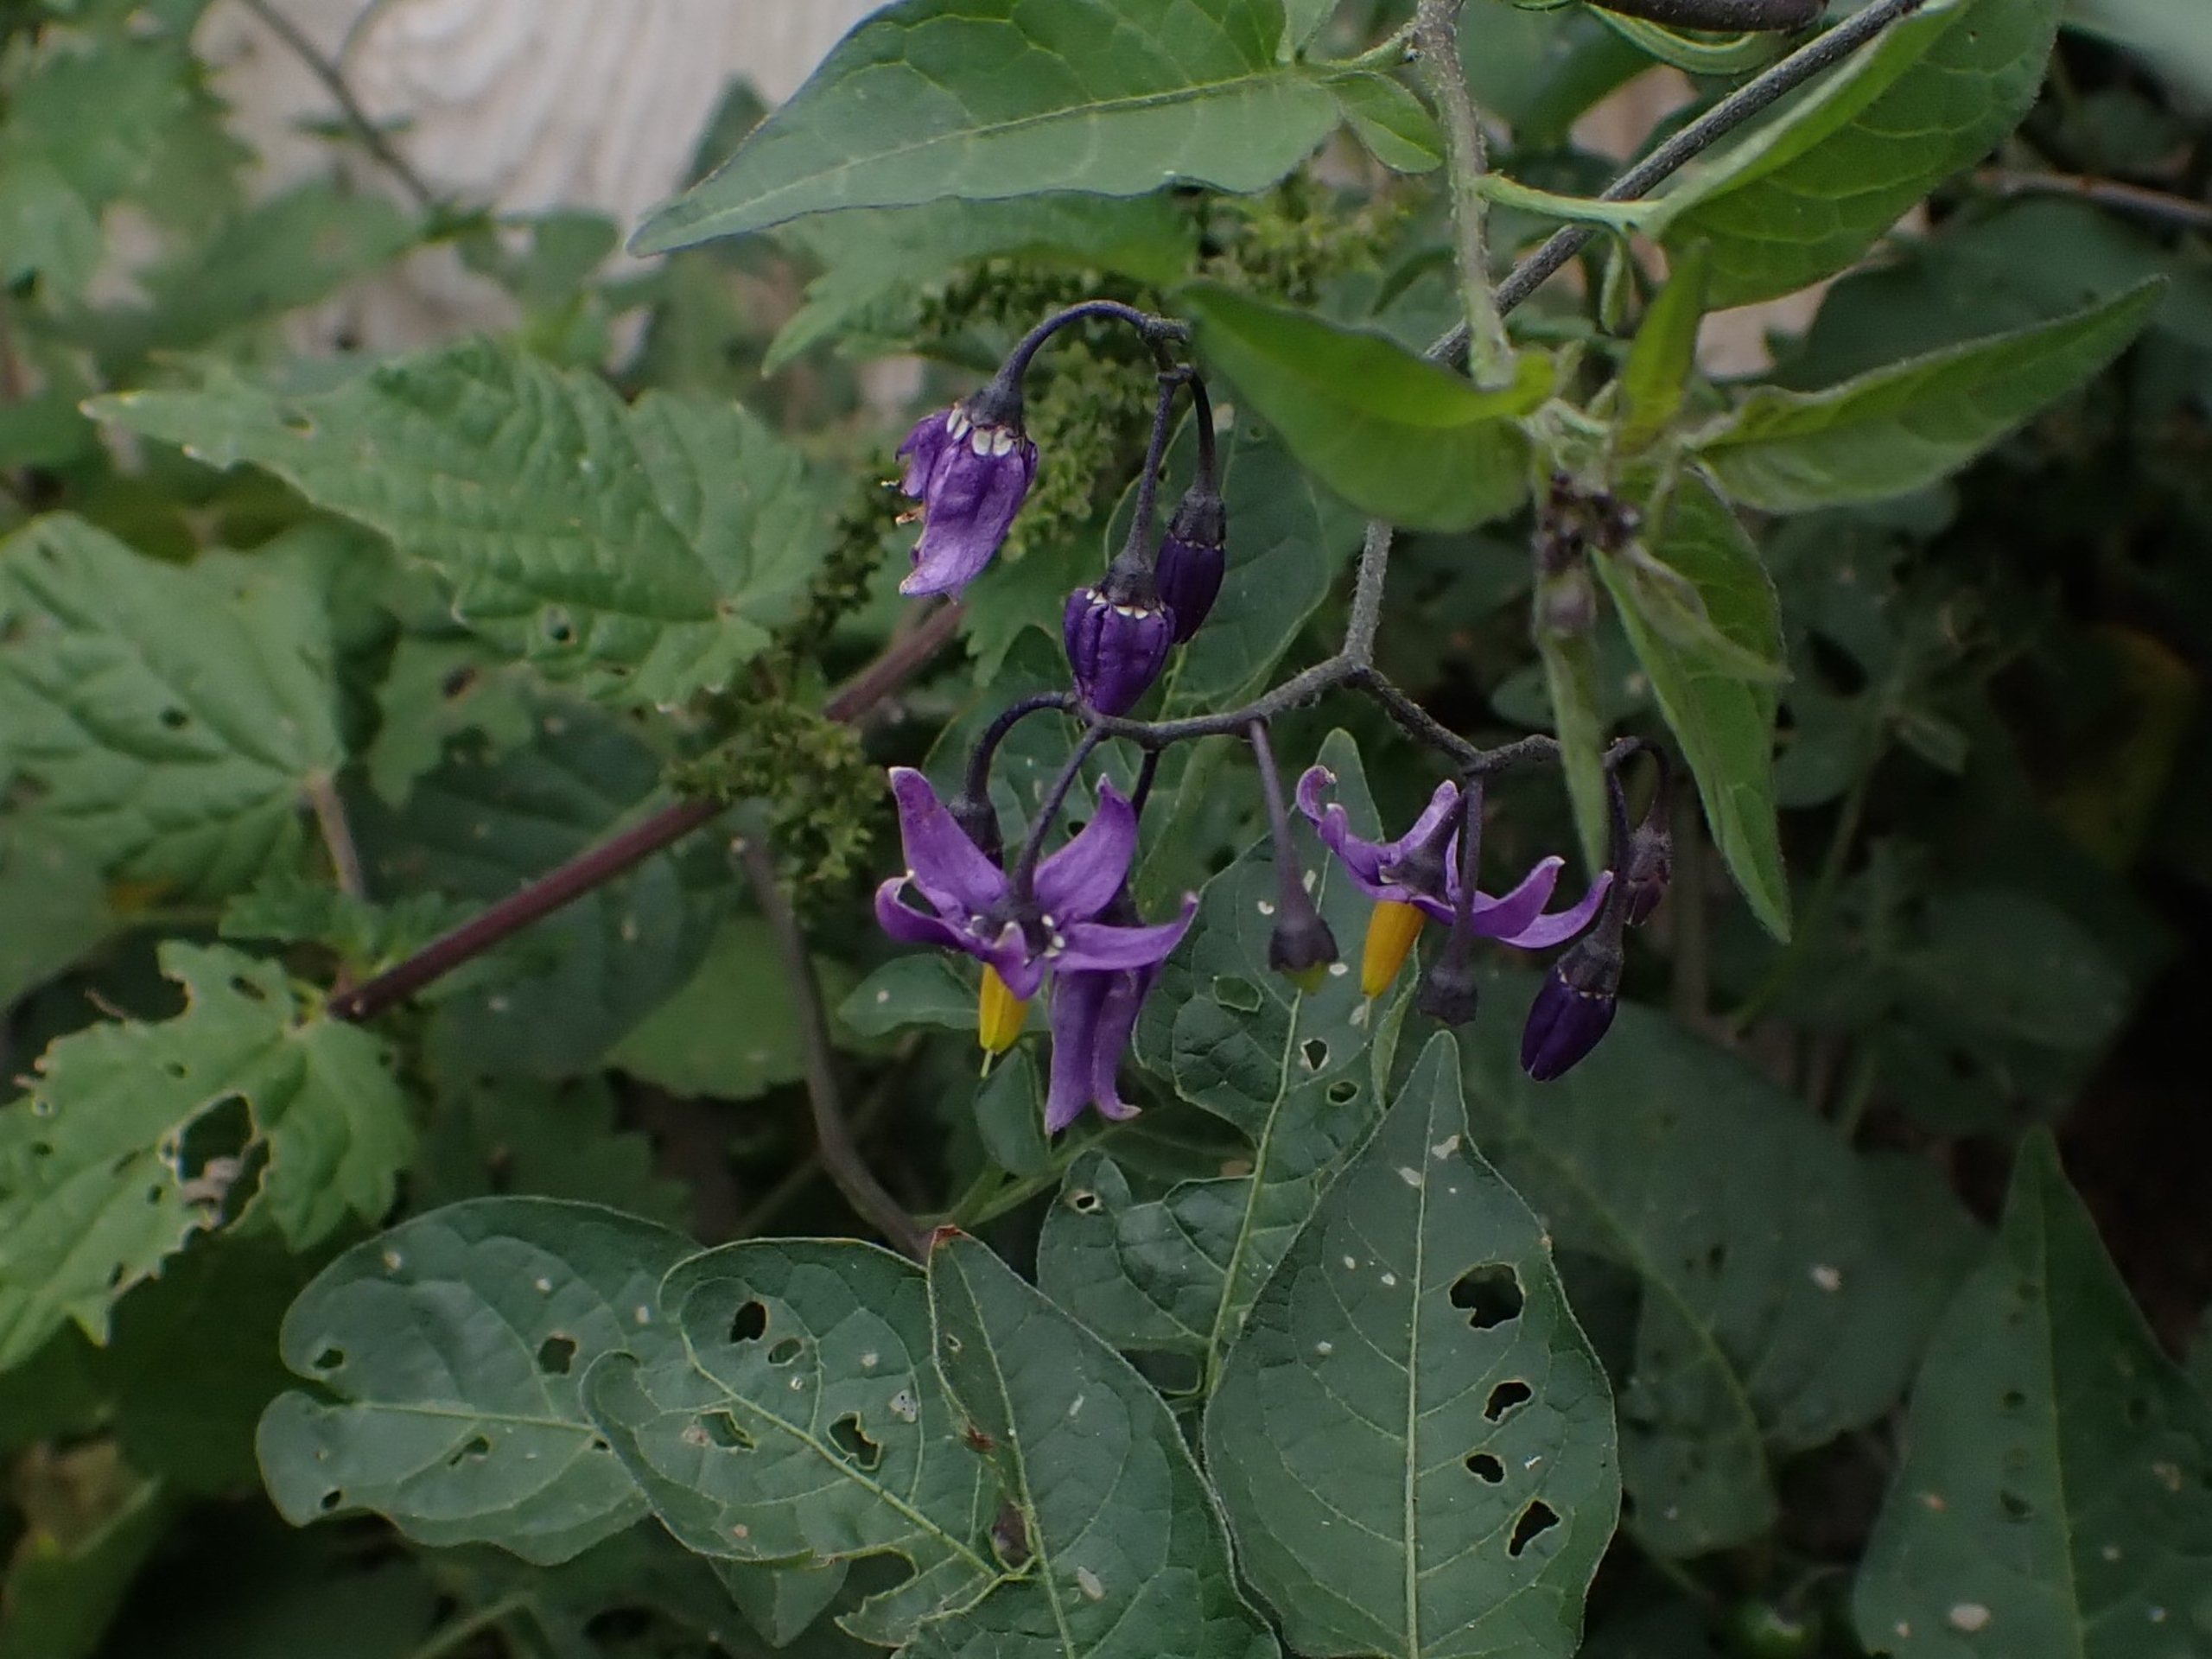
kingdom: Plantae
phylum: Tracheophyta
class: Magnoliopsida
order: Solanales
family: Solanaceae
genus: Solanum
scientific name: Solanum dulcamara
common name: Bittersød natskygge
